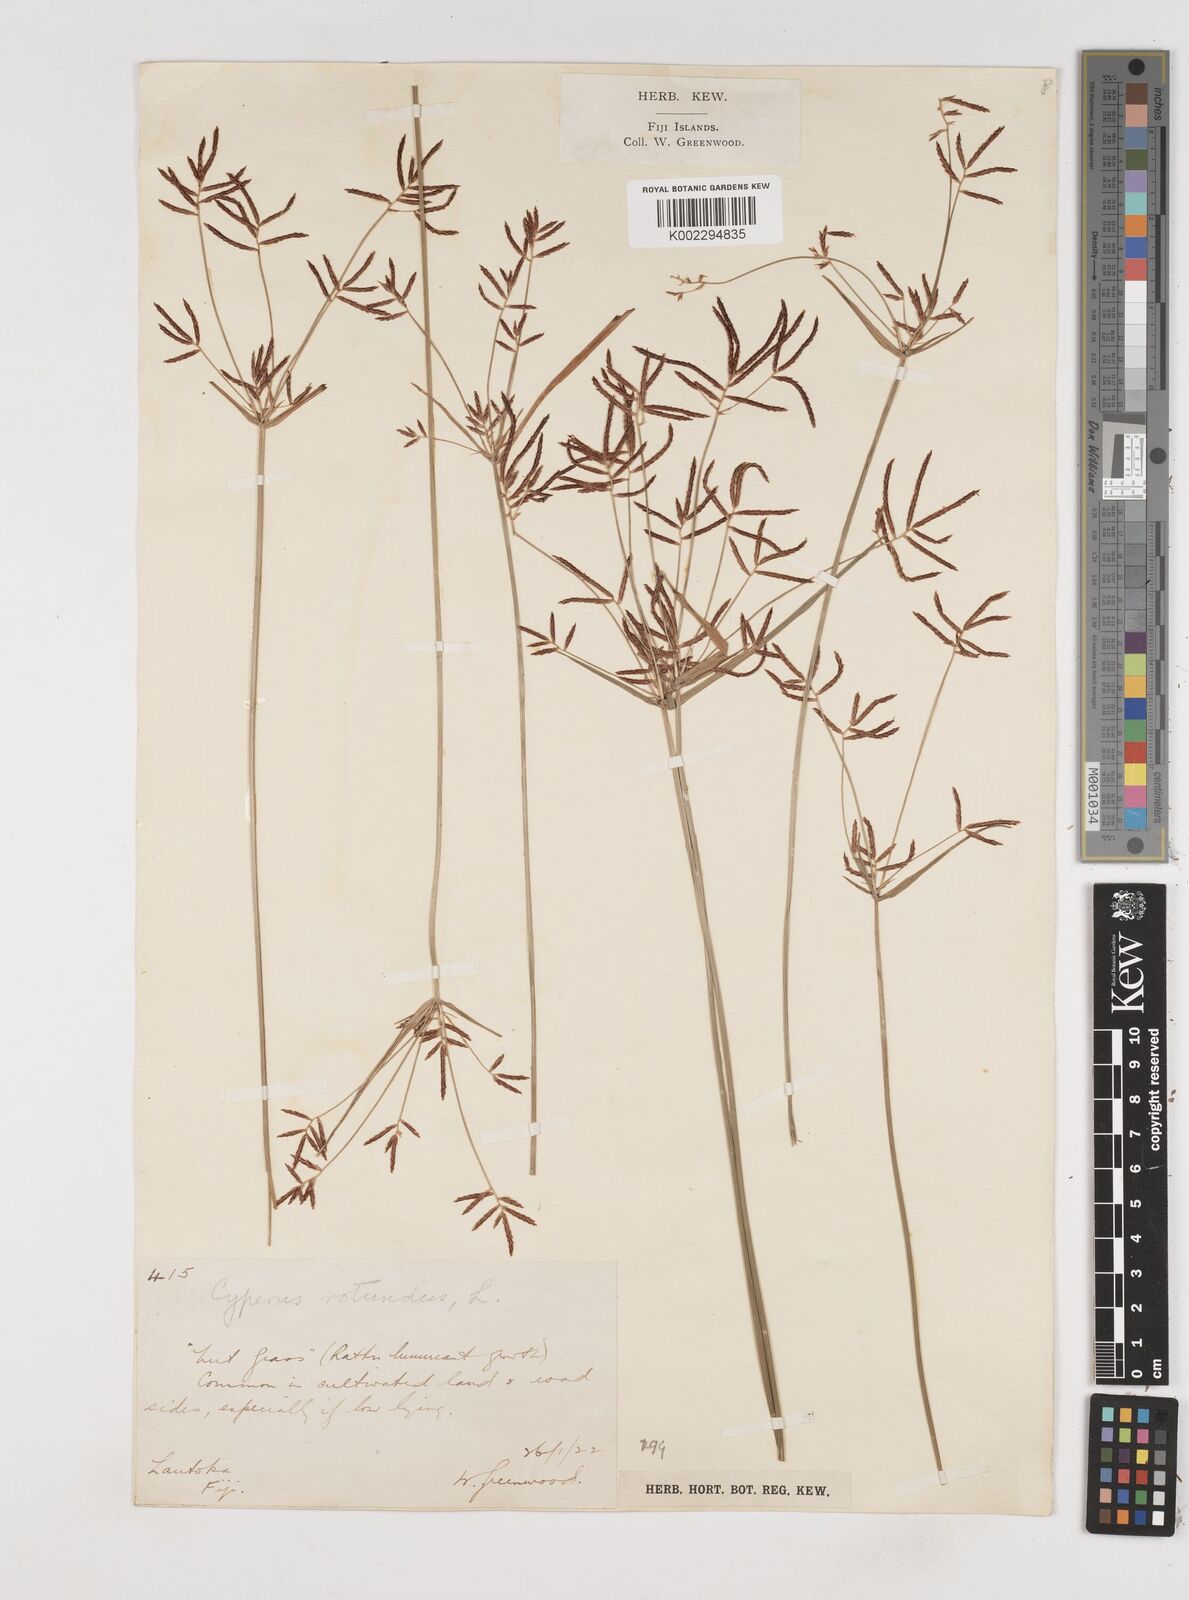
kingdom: Plantae
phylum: Tracheophyta
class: Liliopsida
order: Poales
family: Cyperaceae
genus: Cyperus
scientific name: Cyperus rotundus
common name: Nutgrass
